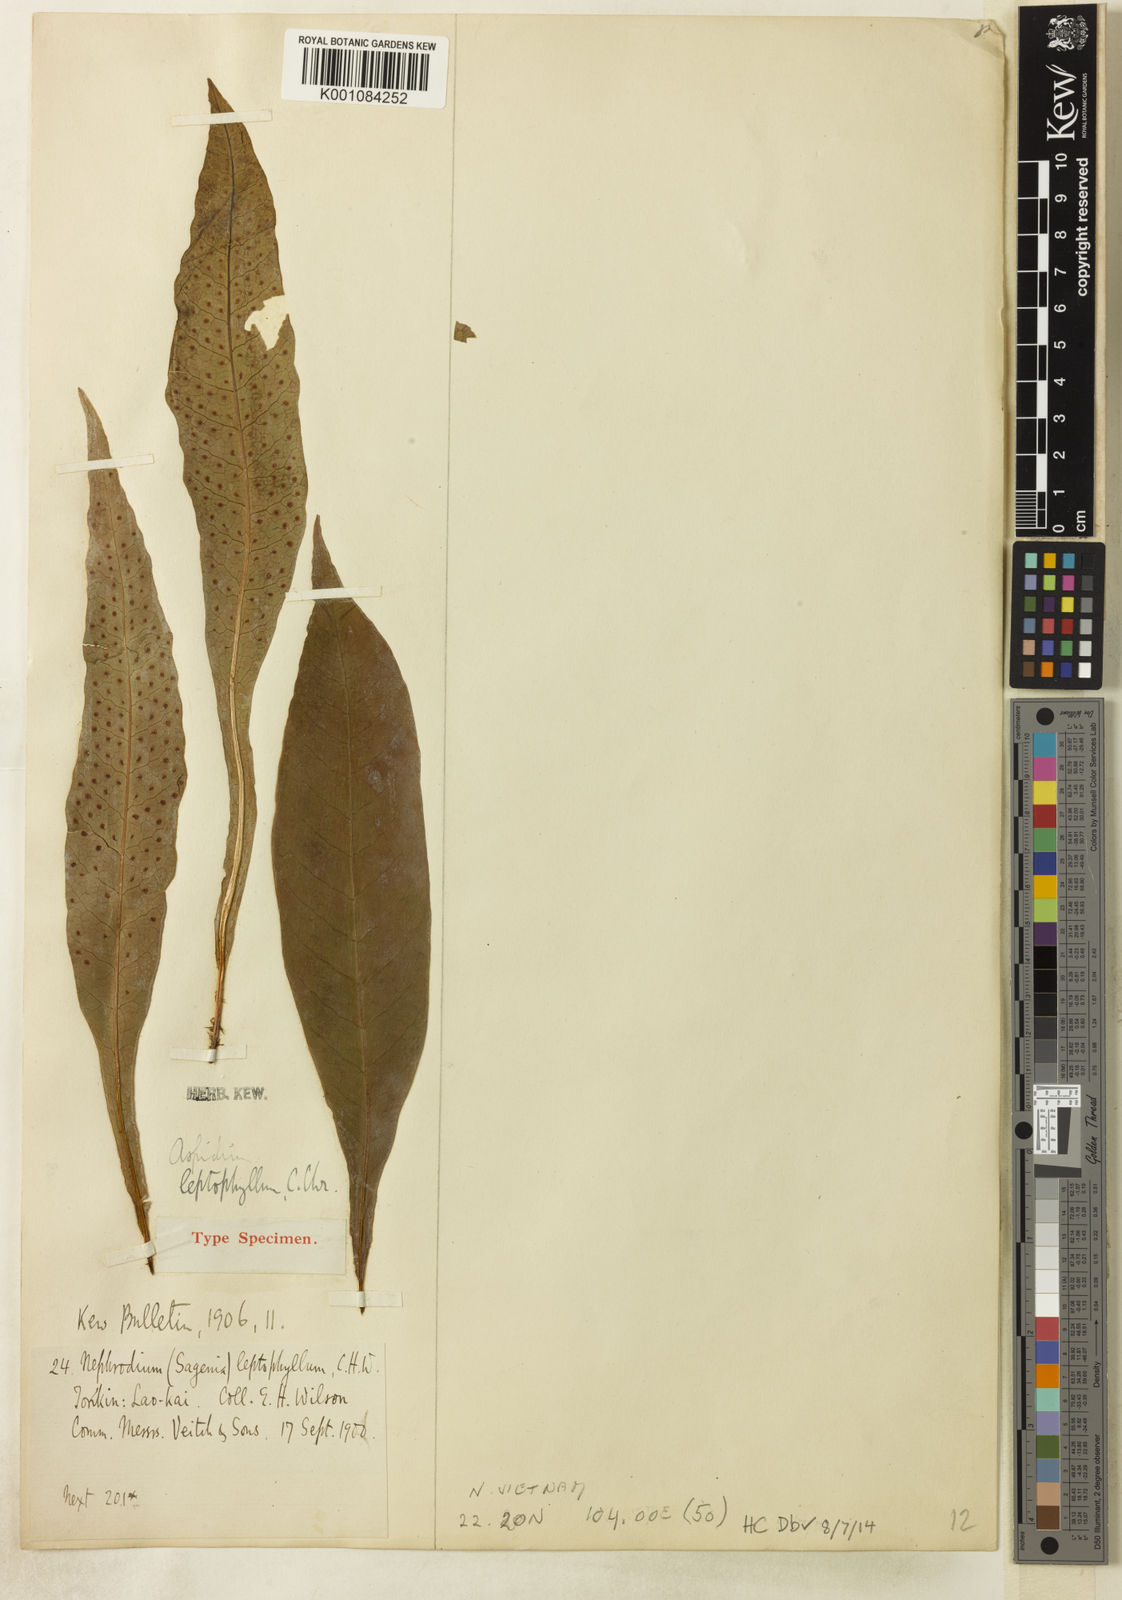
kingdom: Plantae
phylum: Tracheophyta
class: Polypodiopsida
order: Polypodiales
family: Tectariaceae
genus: Tectaria
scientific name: Tectaria leptophylla
